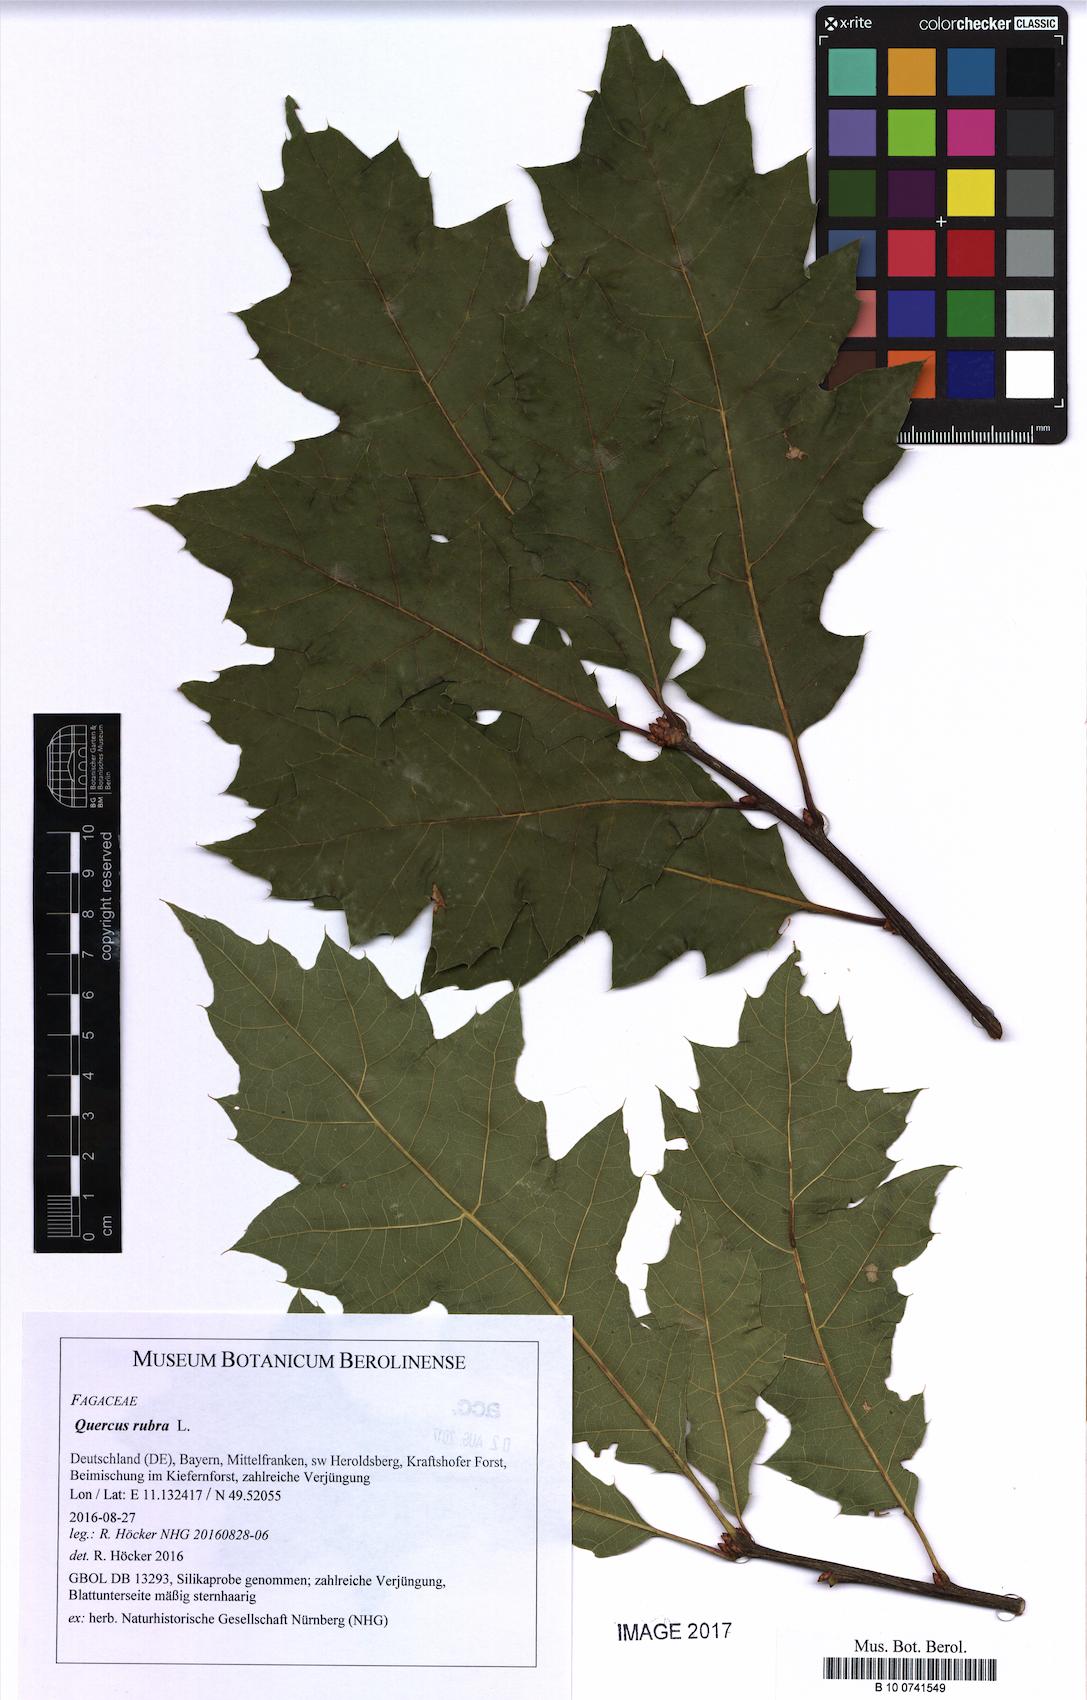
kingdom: Plantae
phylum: Tracheophyta
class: Magnoliopsida
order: Fagales
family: Fagaceae
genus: Quercus
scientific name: Quercus rubra
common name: Red oak
